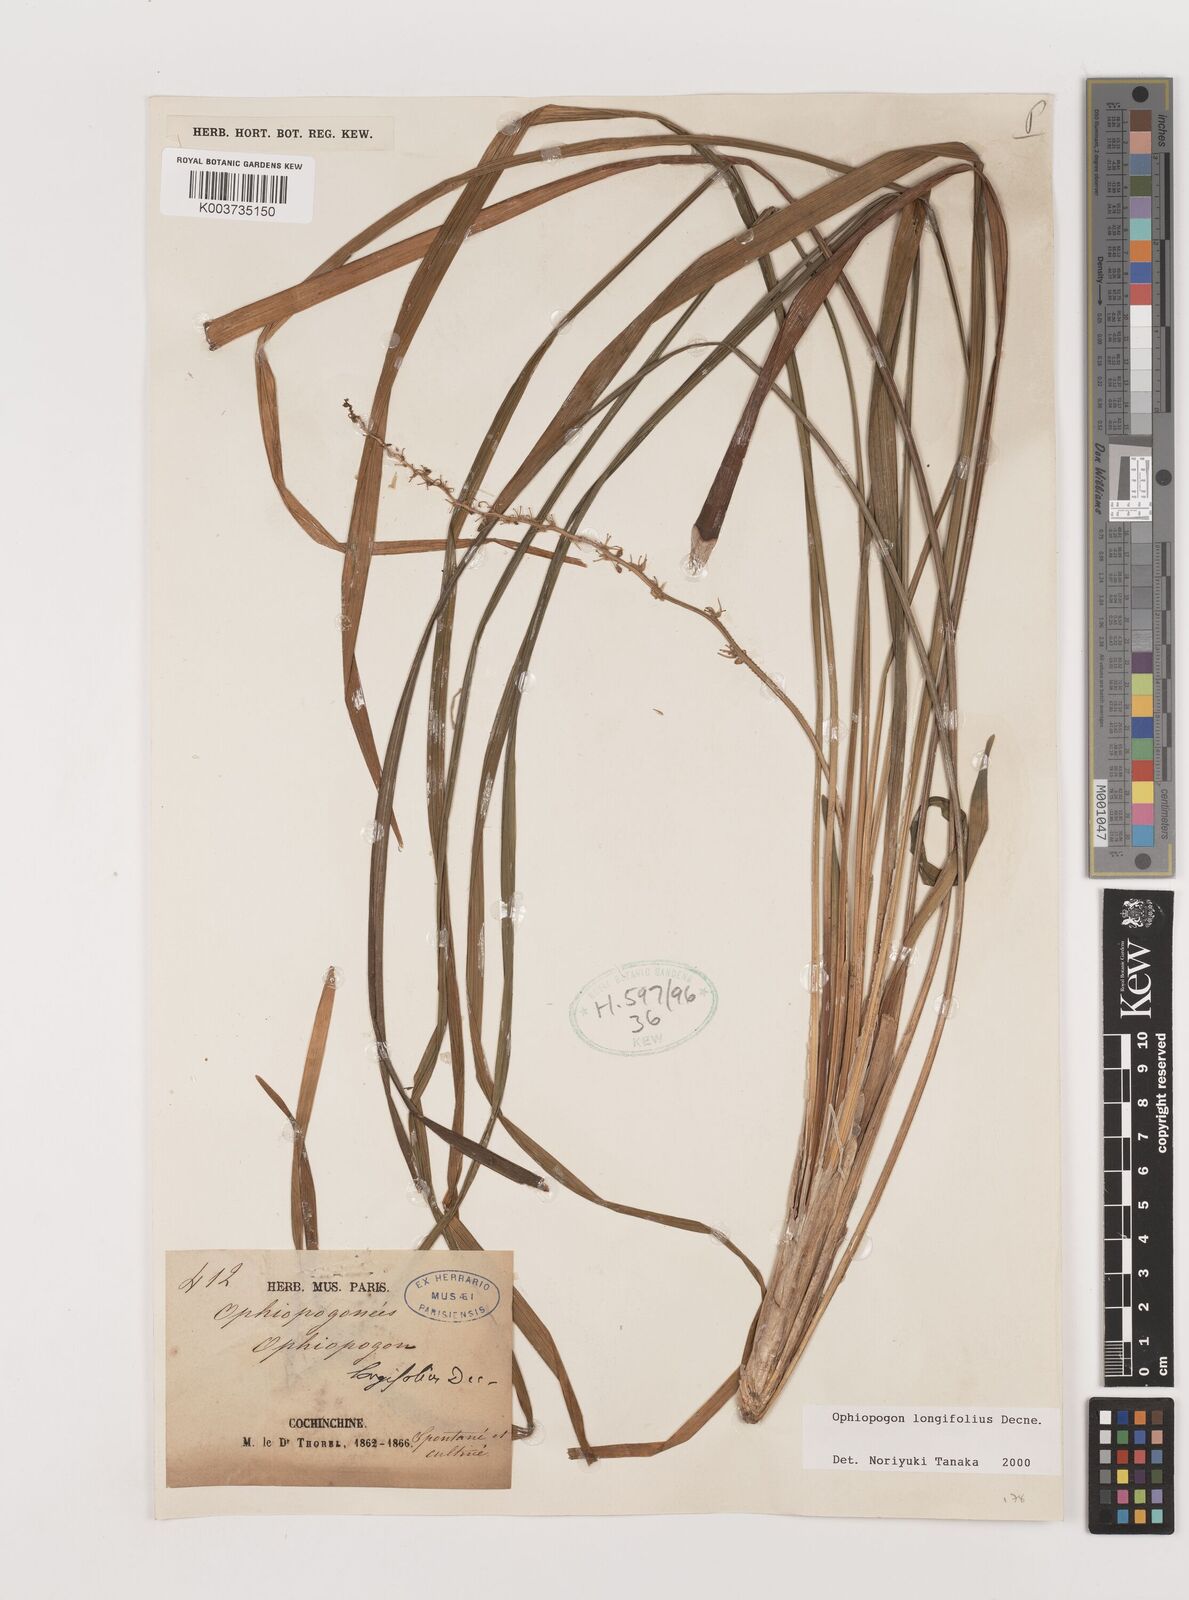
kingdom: Plantae
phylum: Tracheophyta
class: Liliopsida
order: Asparagales
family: Asparagaceae
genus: Ophiopogon
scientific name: Ophiopogon longifolius
